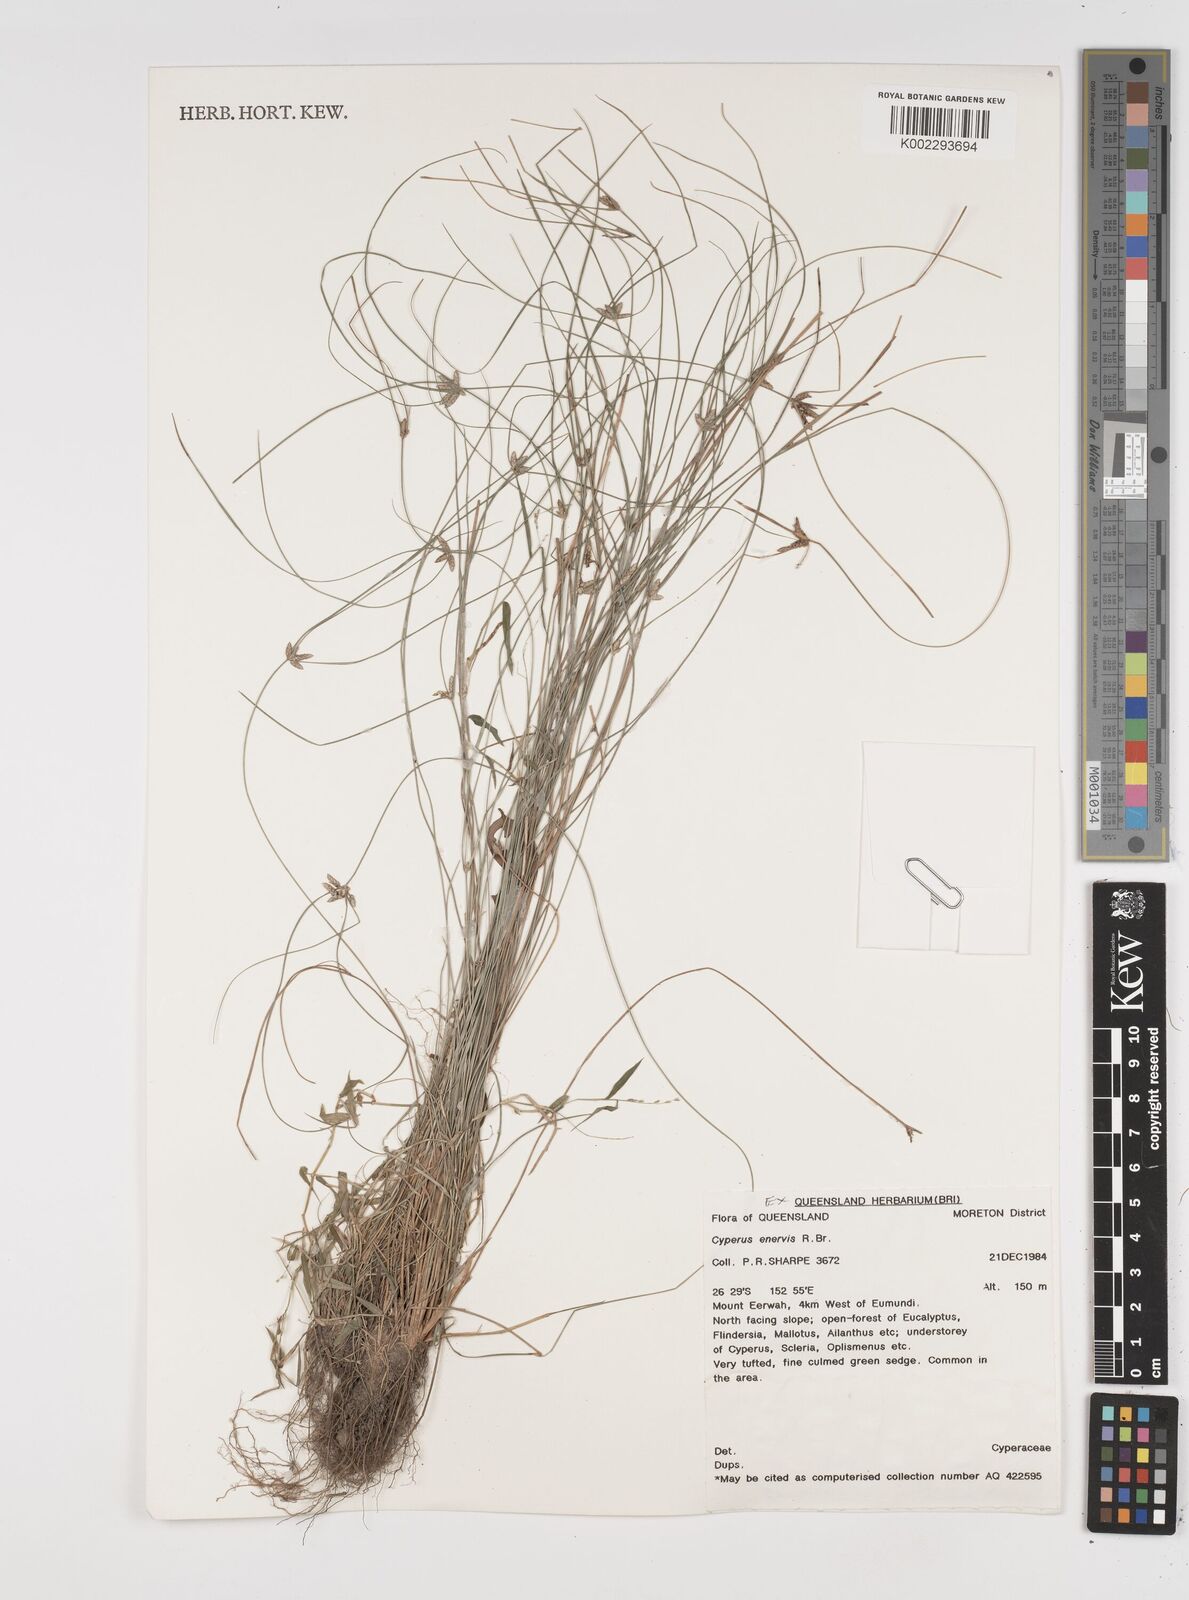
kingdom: Plantae
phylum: Tracheophyta
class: Liliopsida
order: Poales
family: Cyperaceae
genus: Cyperus
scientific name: Cyperus enervis
